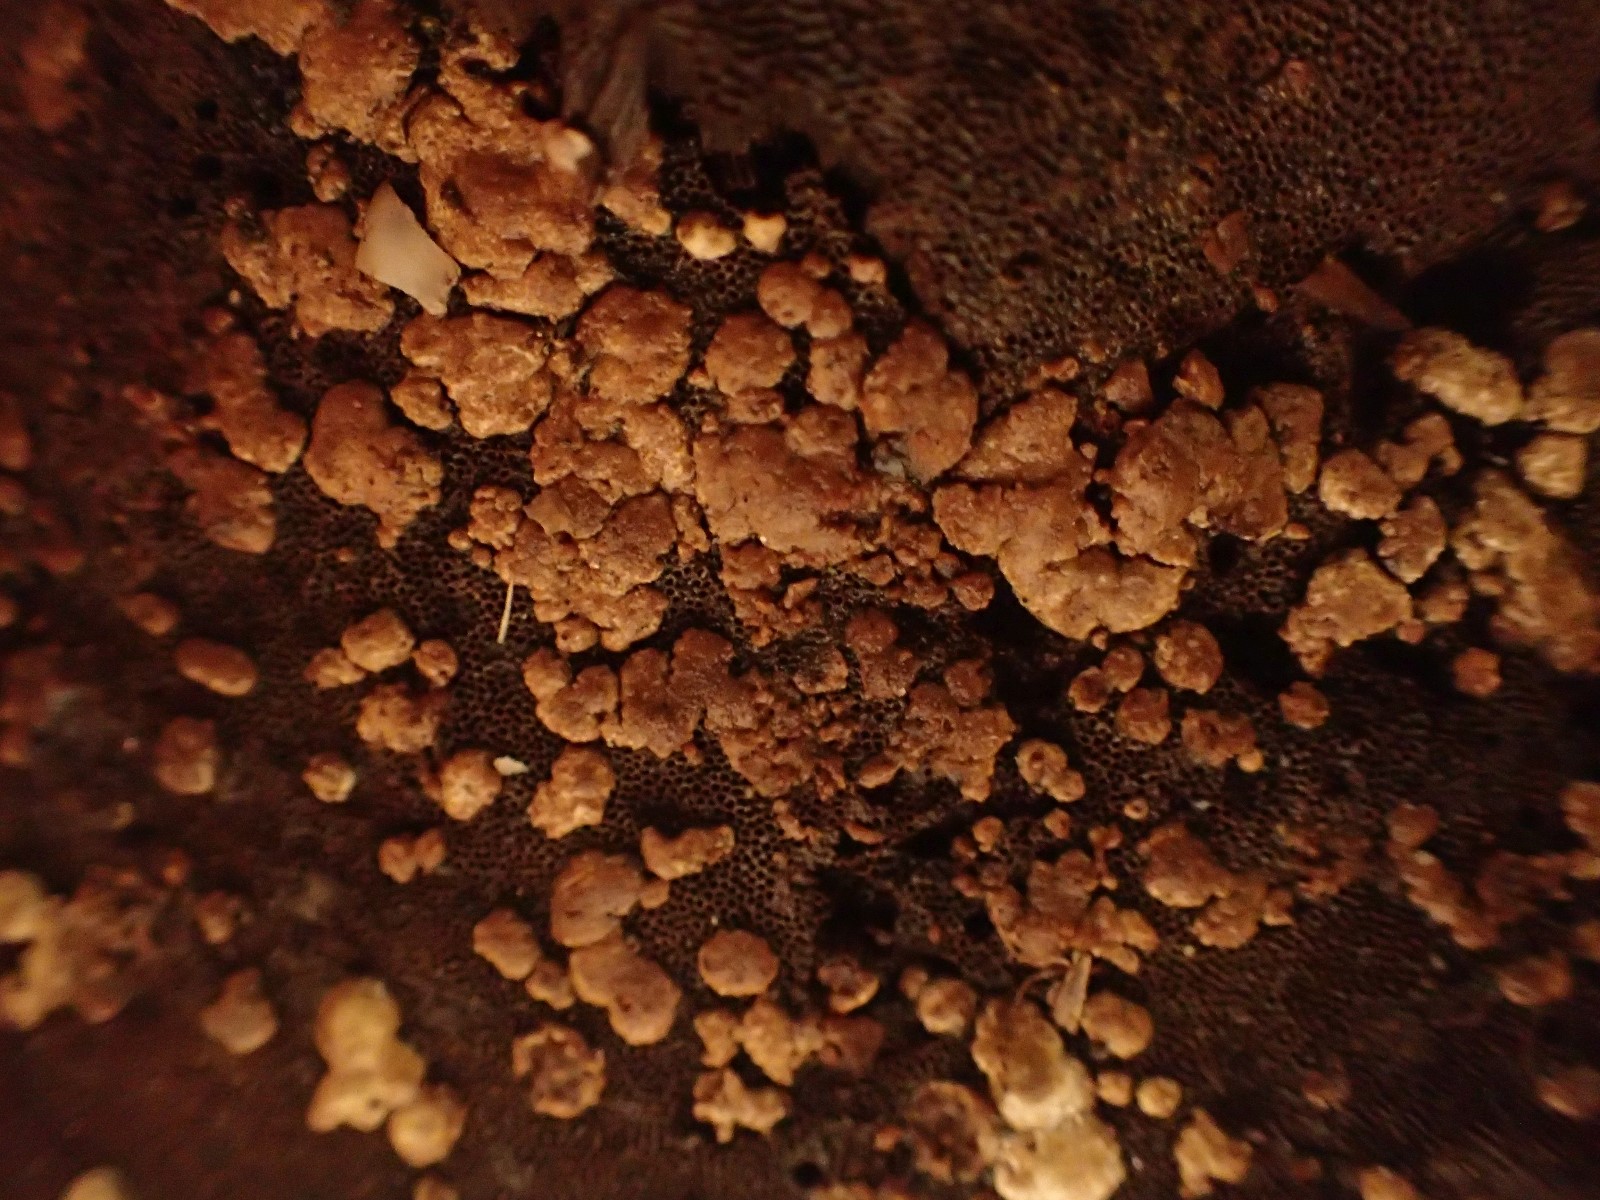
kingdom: Fungi
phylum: Ascomycota
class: Sordariomycetes
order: Hypocreales
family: Hypocreaceae
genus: Trichoderma
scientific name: Trichoderma
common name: kødkerne
